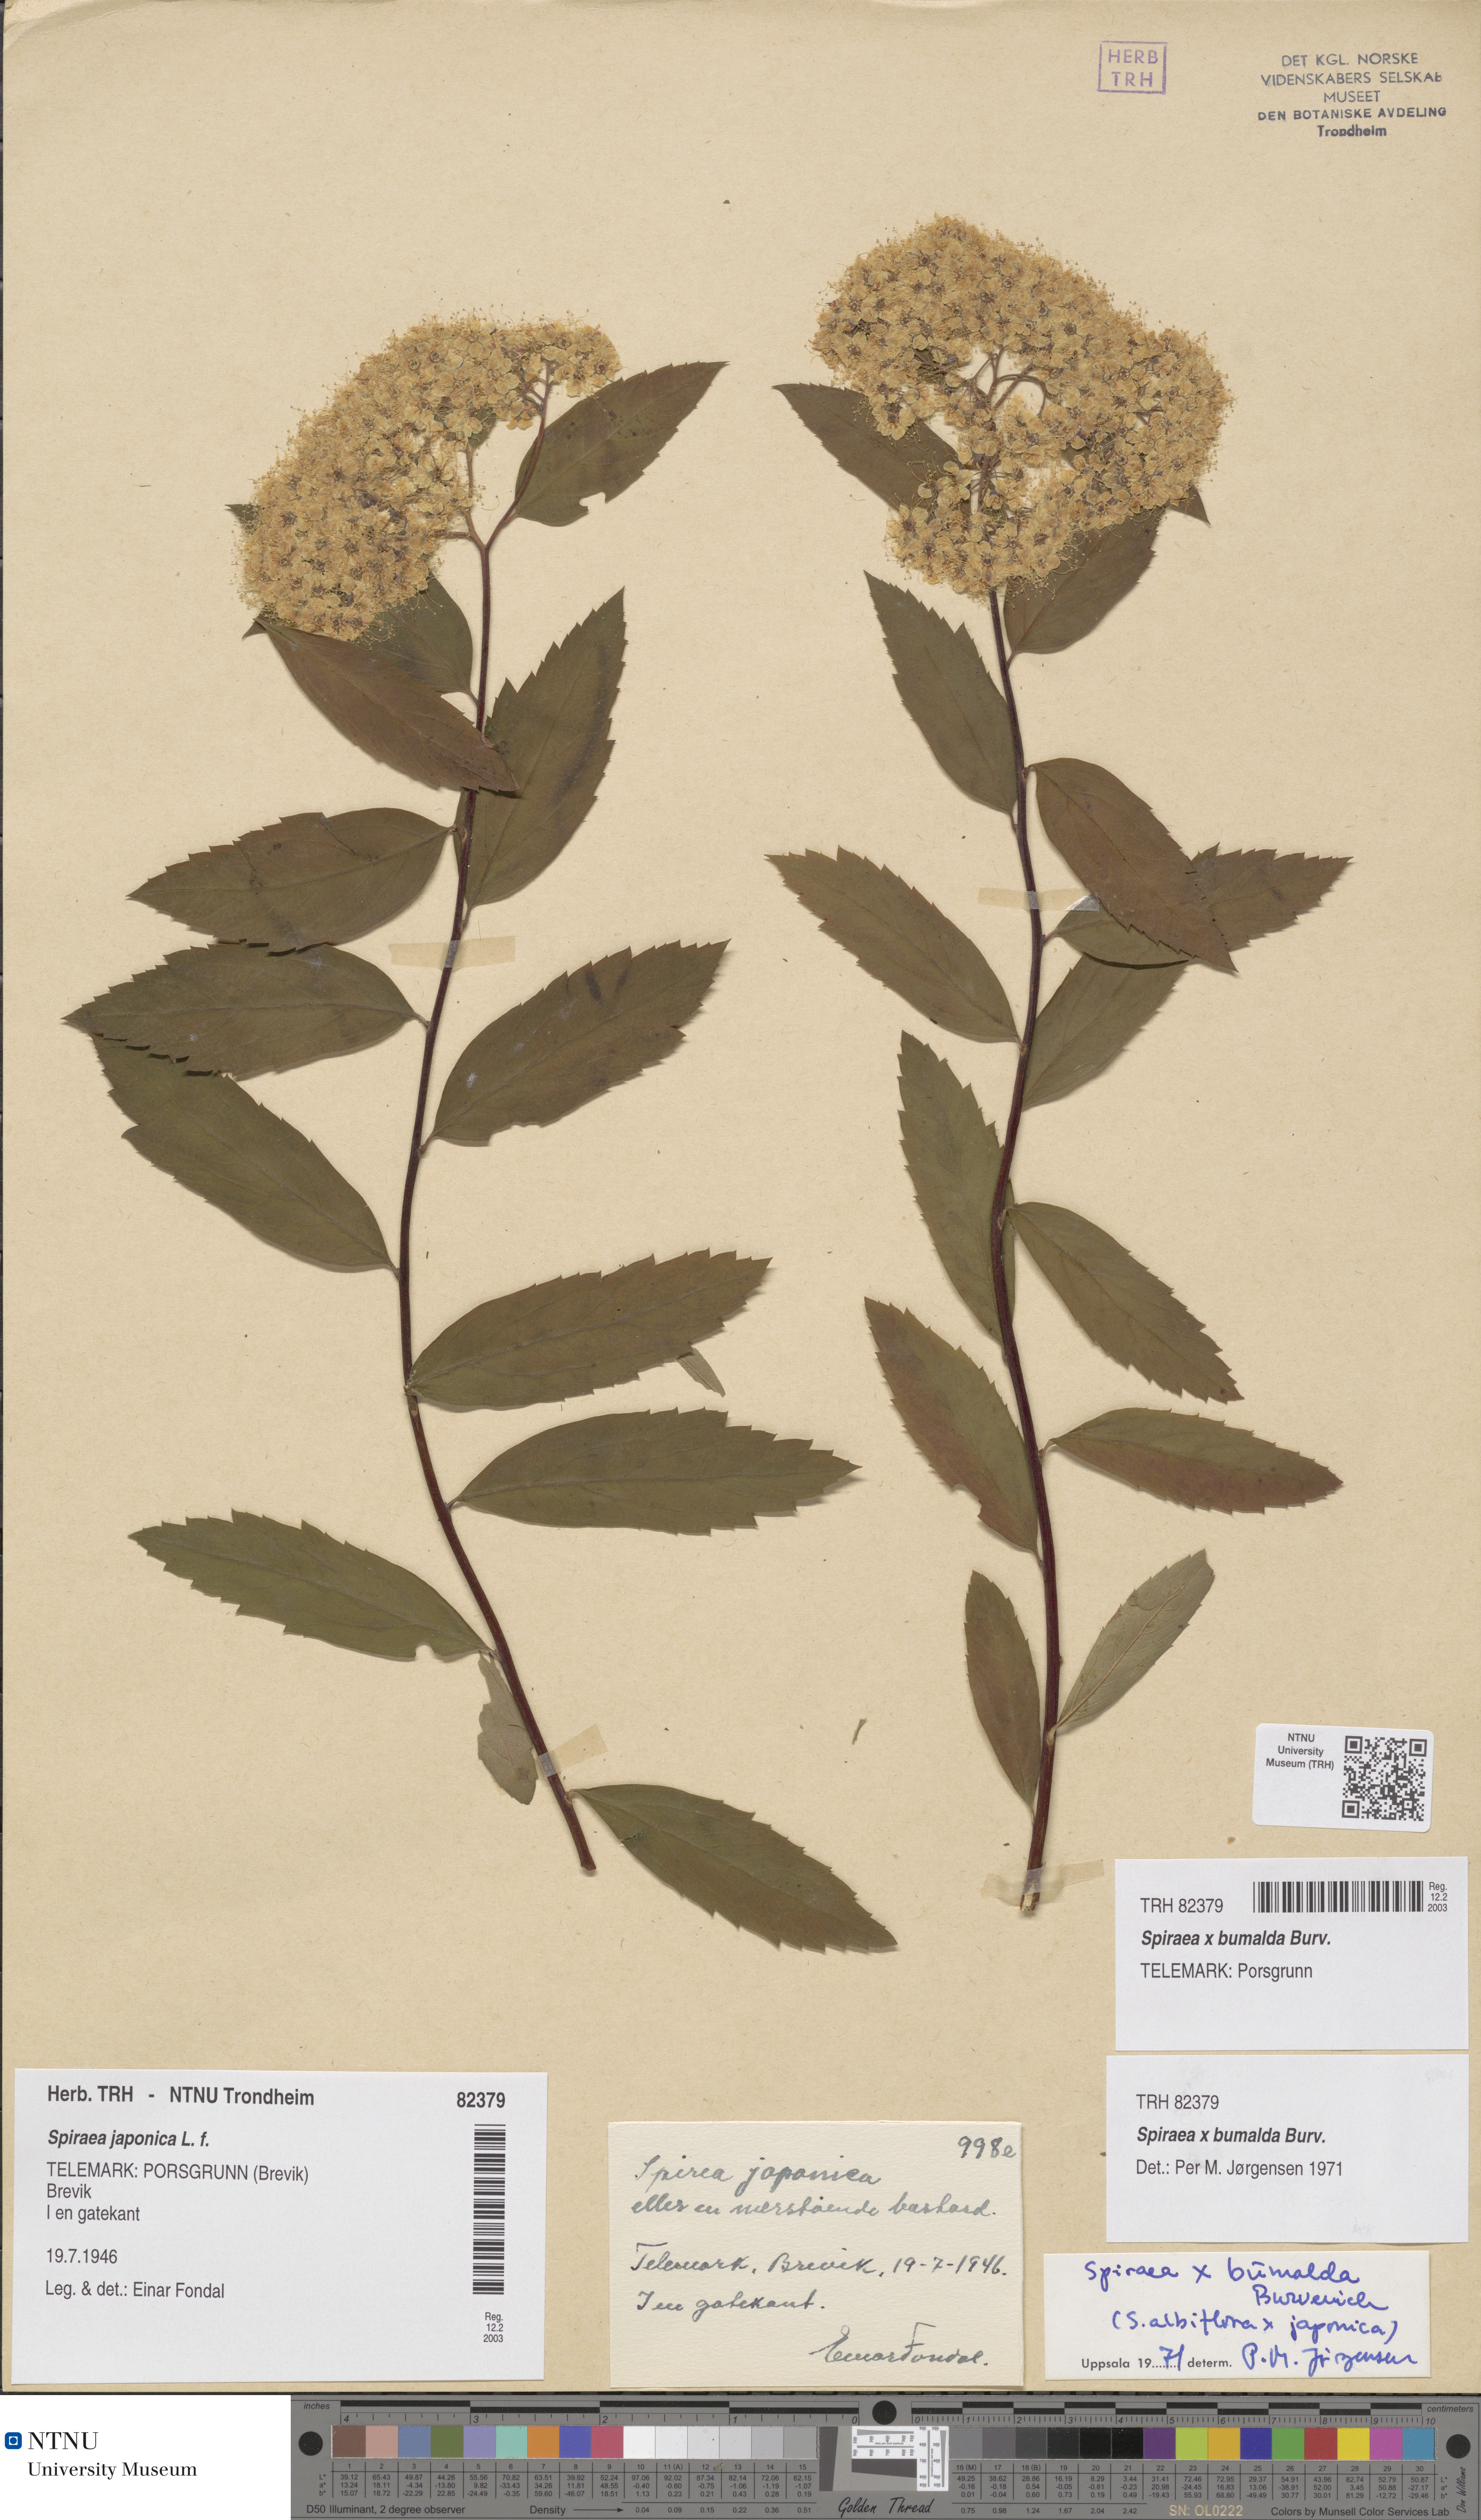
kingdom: Plantae
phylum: Tracheophyta
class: Magnoliopsida
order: Rosales
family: Rosaceae
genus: Spiraea
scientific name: Spiraea japonica
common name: Japanese spiraea
